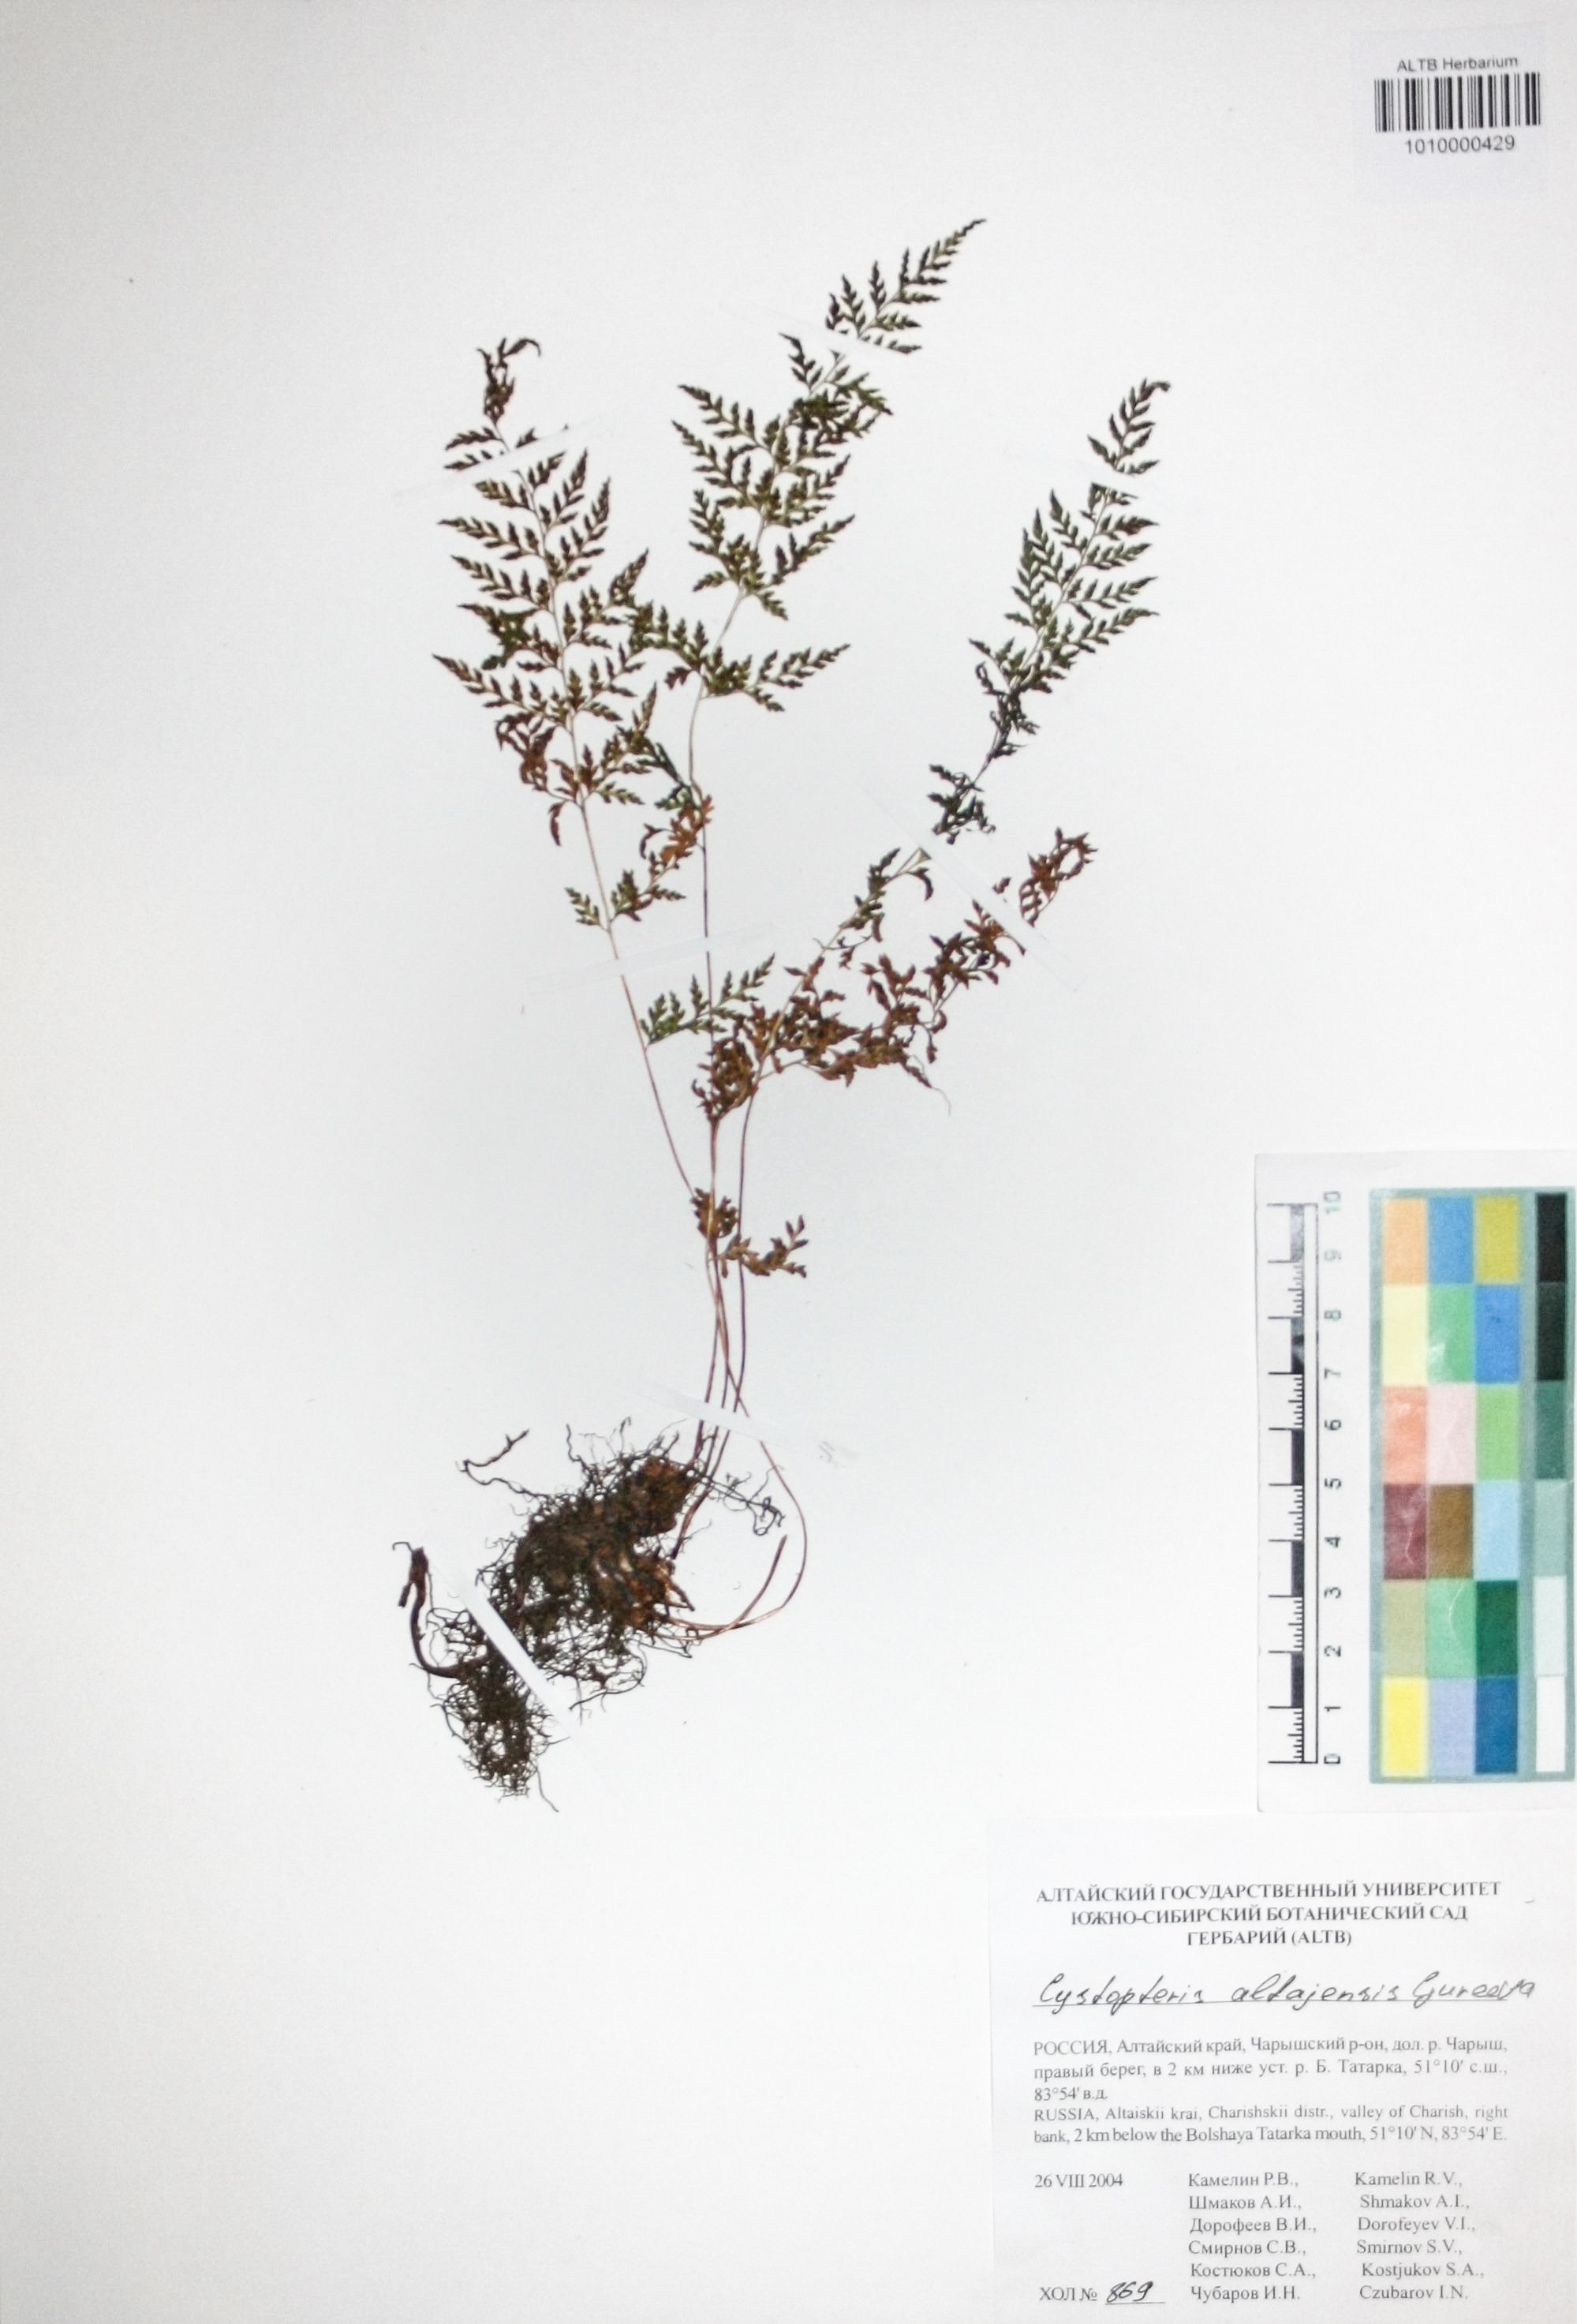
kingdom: Plantae
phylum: Tracheophyta
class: Polypodiopsida
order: Polypodiales
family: Cystopteridaceae
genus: Cystopteris
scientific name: Cystopteris diaphana
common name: Greenish bladder-fern
